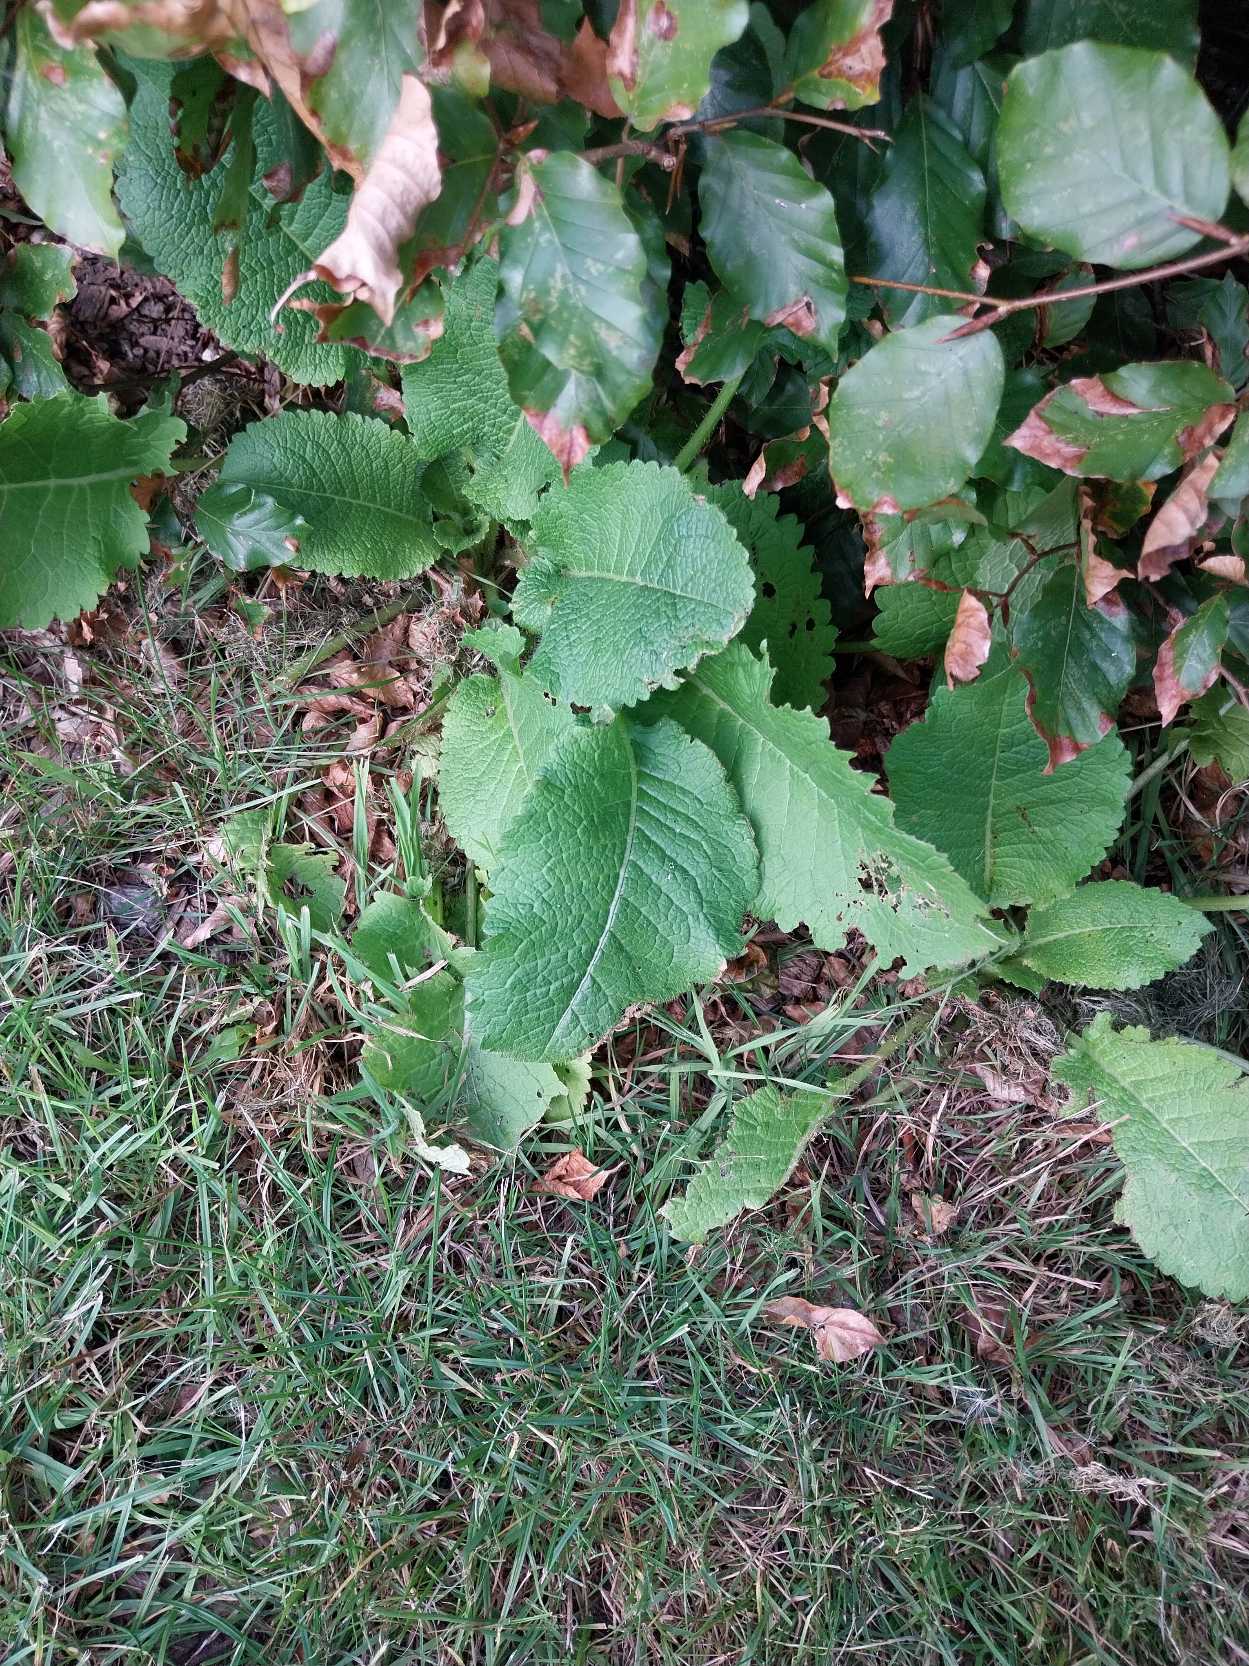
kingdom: Plantae
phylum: Tracheophyta
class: Magnoliopsida
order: Dipsacales
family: Caprifoliaceae
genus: Dipsacus
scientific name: Dipsacus strigosus
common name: Pindsvin-kartebolle
